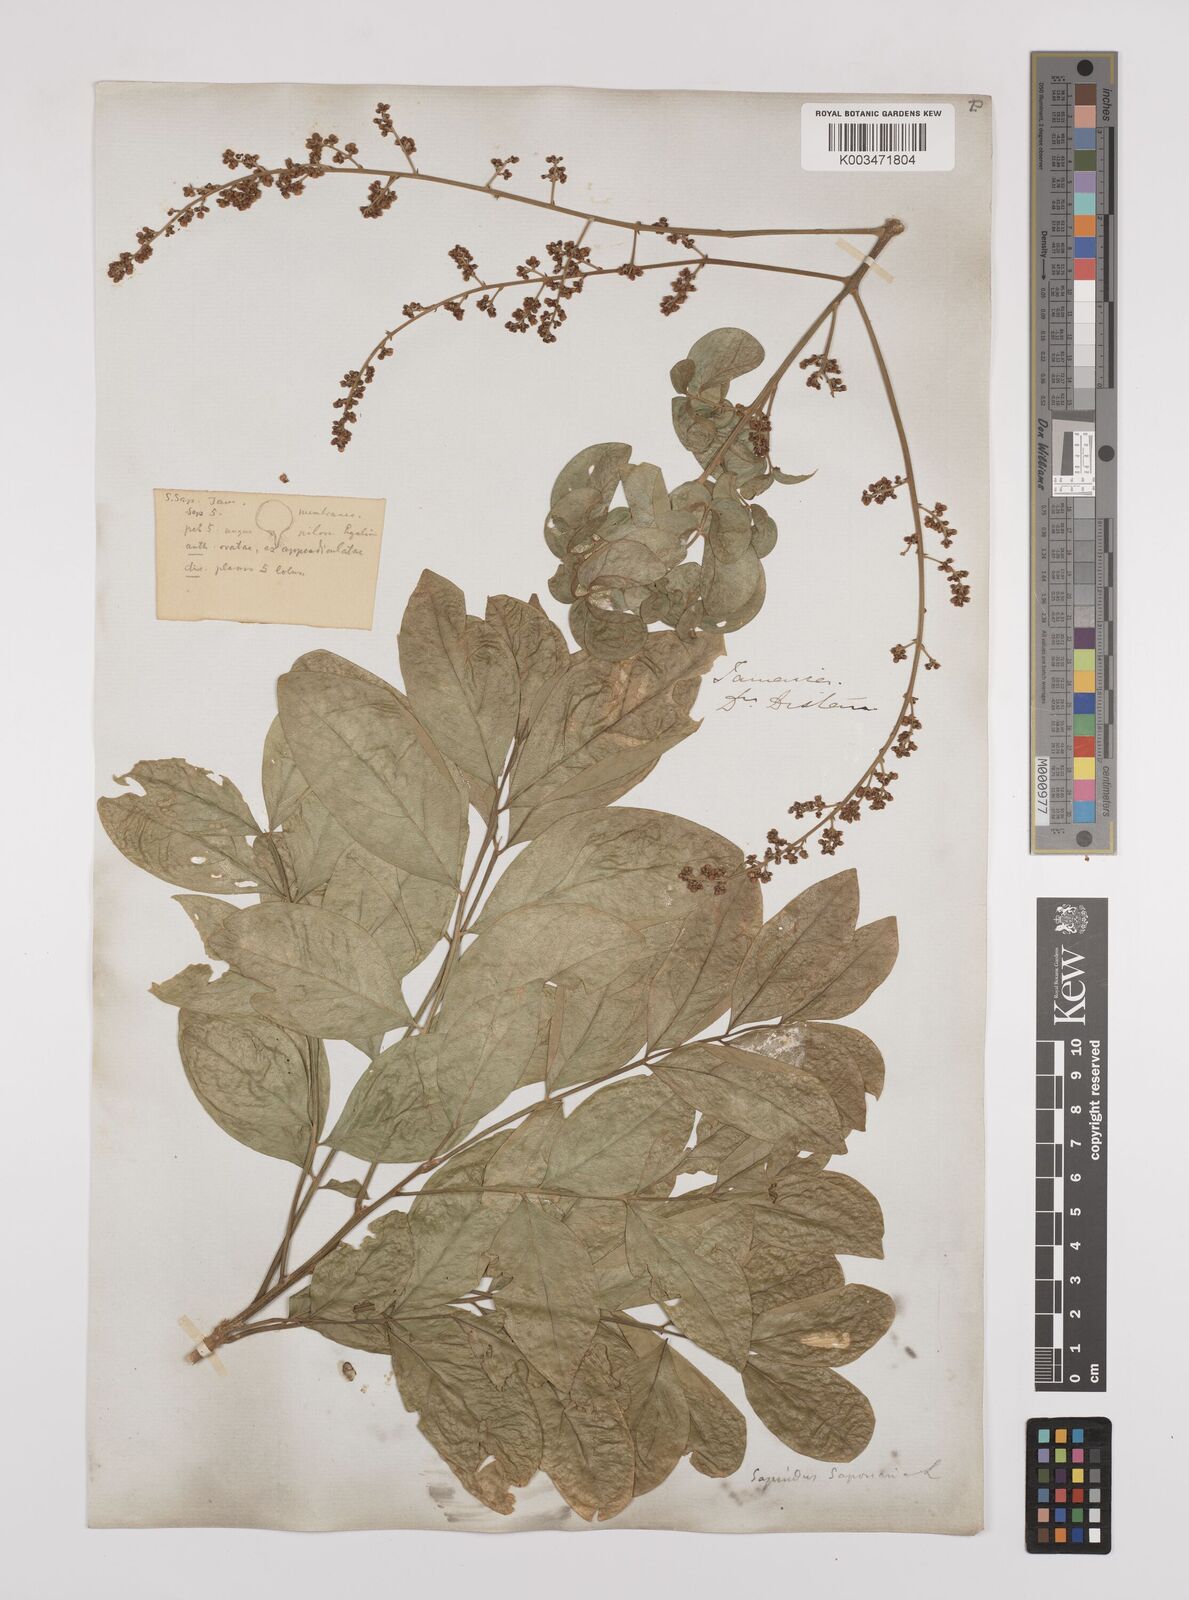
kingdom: Plantae
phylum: Tracheophyta
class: Magnoliopsida
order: Sapindales
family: Sapindaceae
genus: Sapindus
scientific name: Sapindus saponaria
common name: Wingleaf soapberry
